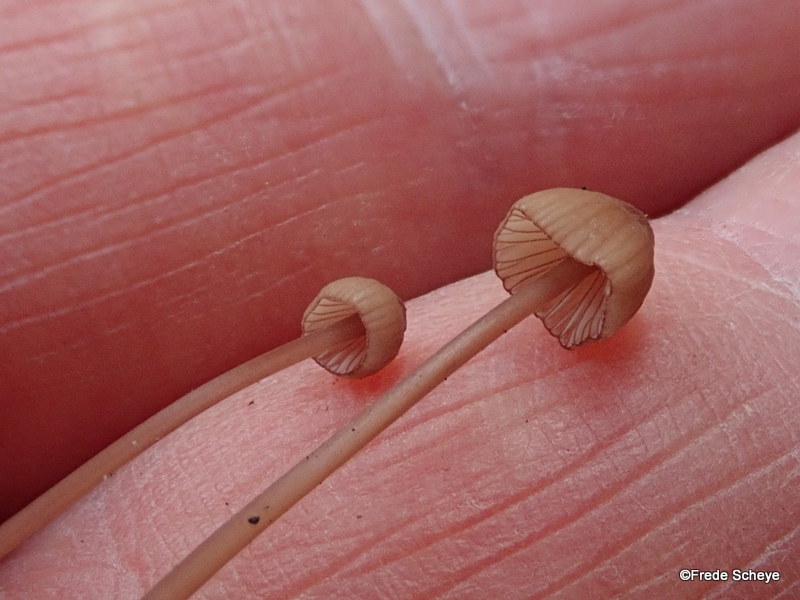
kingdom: Fungi
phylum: Basidiomycota
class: Agaricomycetes
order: Agaricales
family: Mycenaceae
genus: Mycena
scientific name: Mycena sanguinolenta
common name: rødmælket huesvamp
